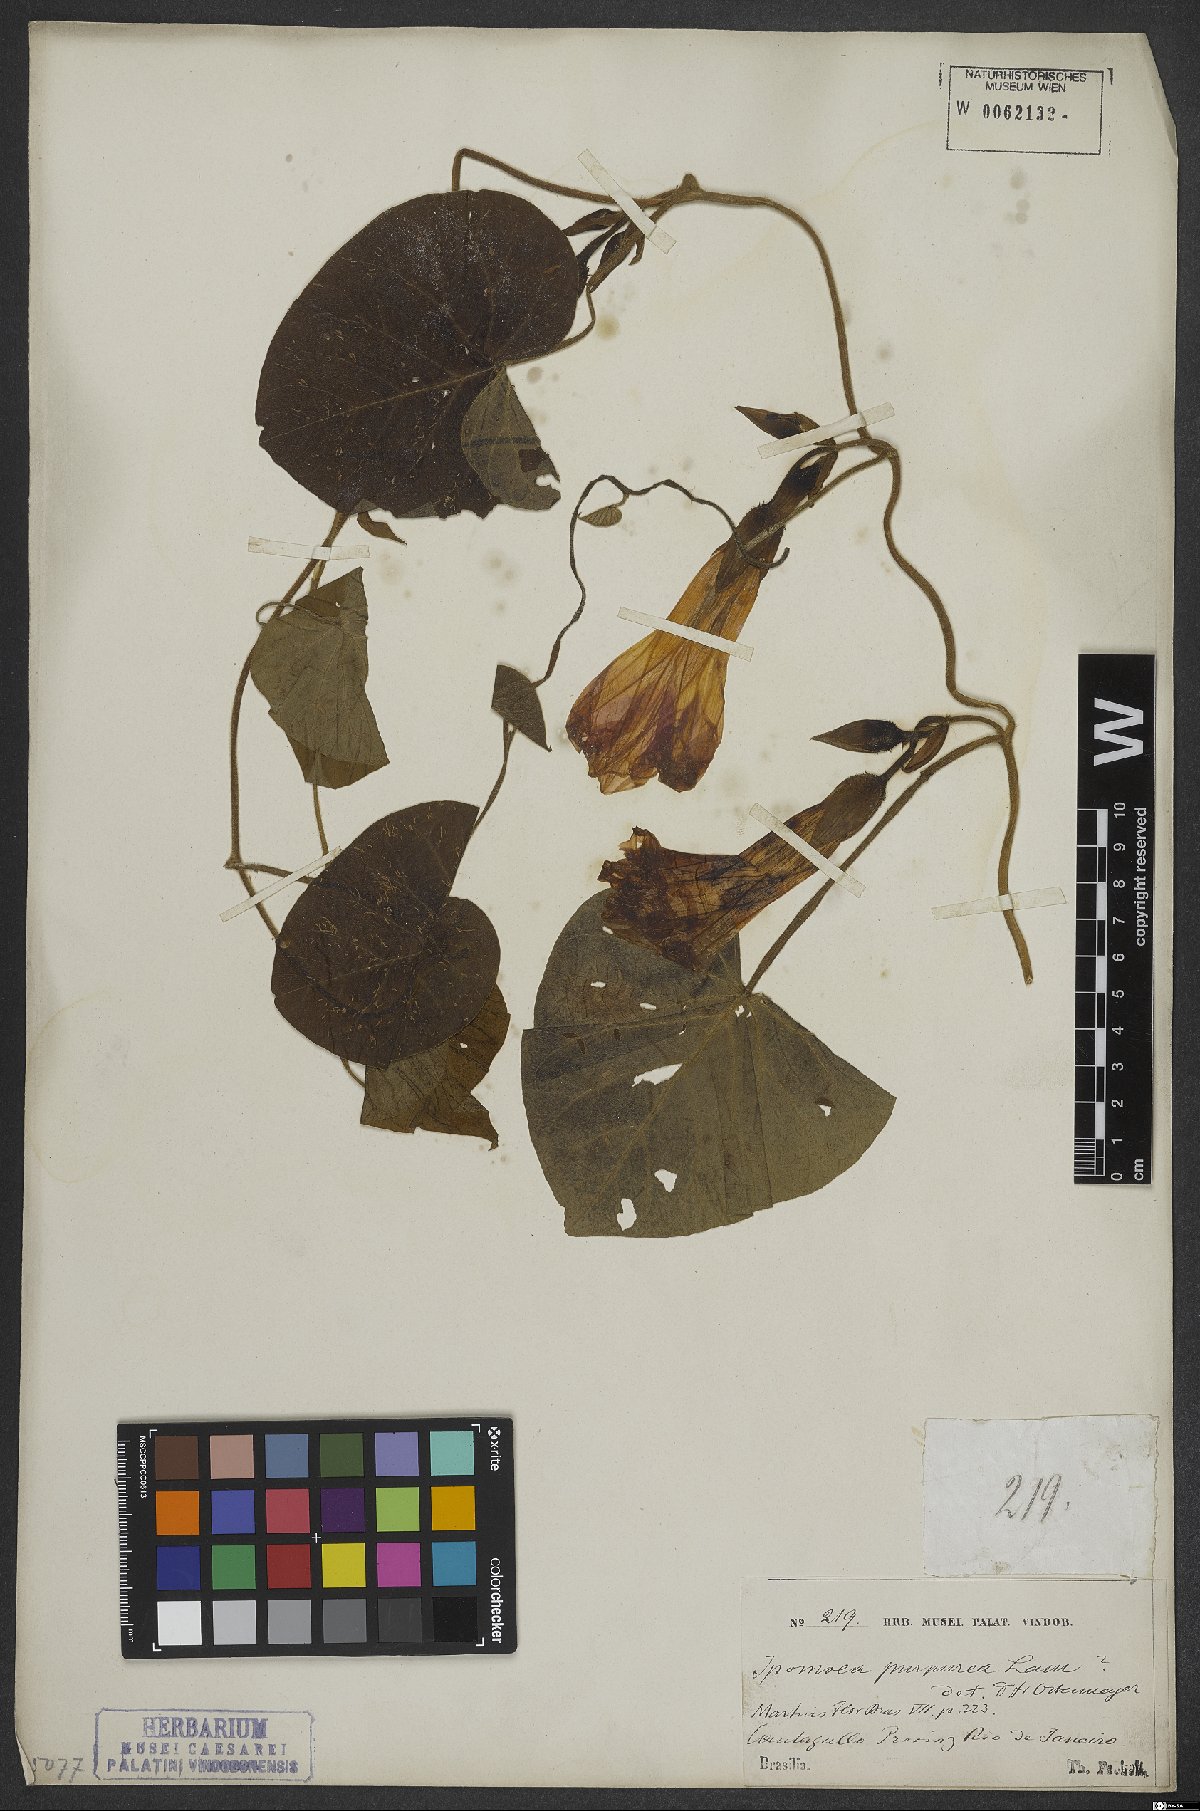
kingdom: Plantae
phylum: Tracheophyta
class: Magnoliopsida
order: Solanales
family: Convolvulaceae
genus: Ipomoea
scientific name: Ipomoea purpurea
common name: Common morning-glory
